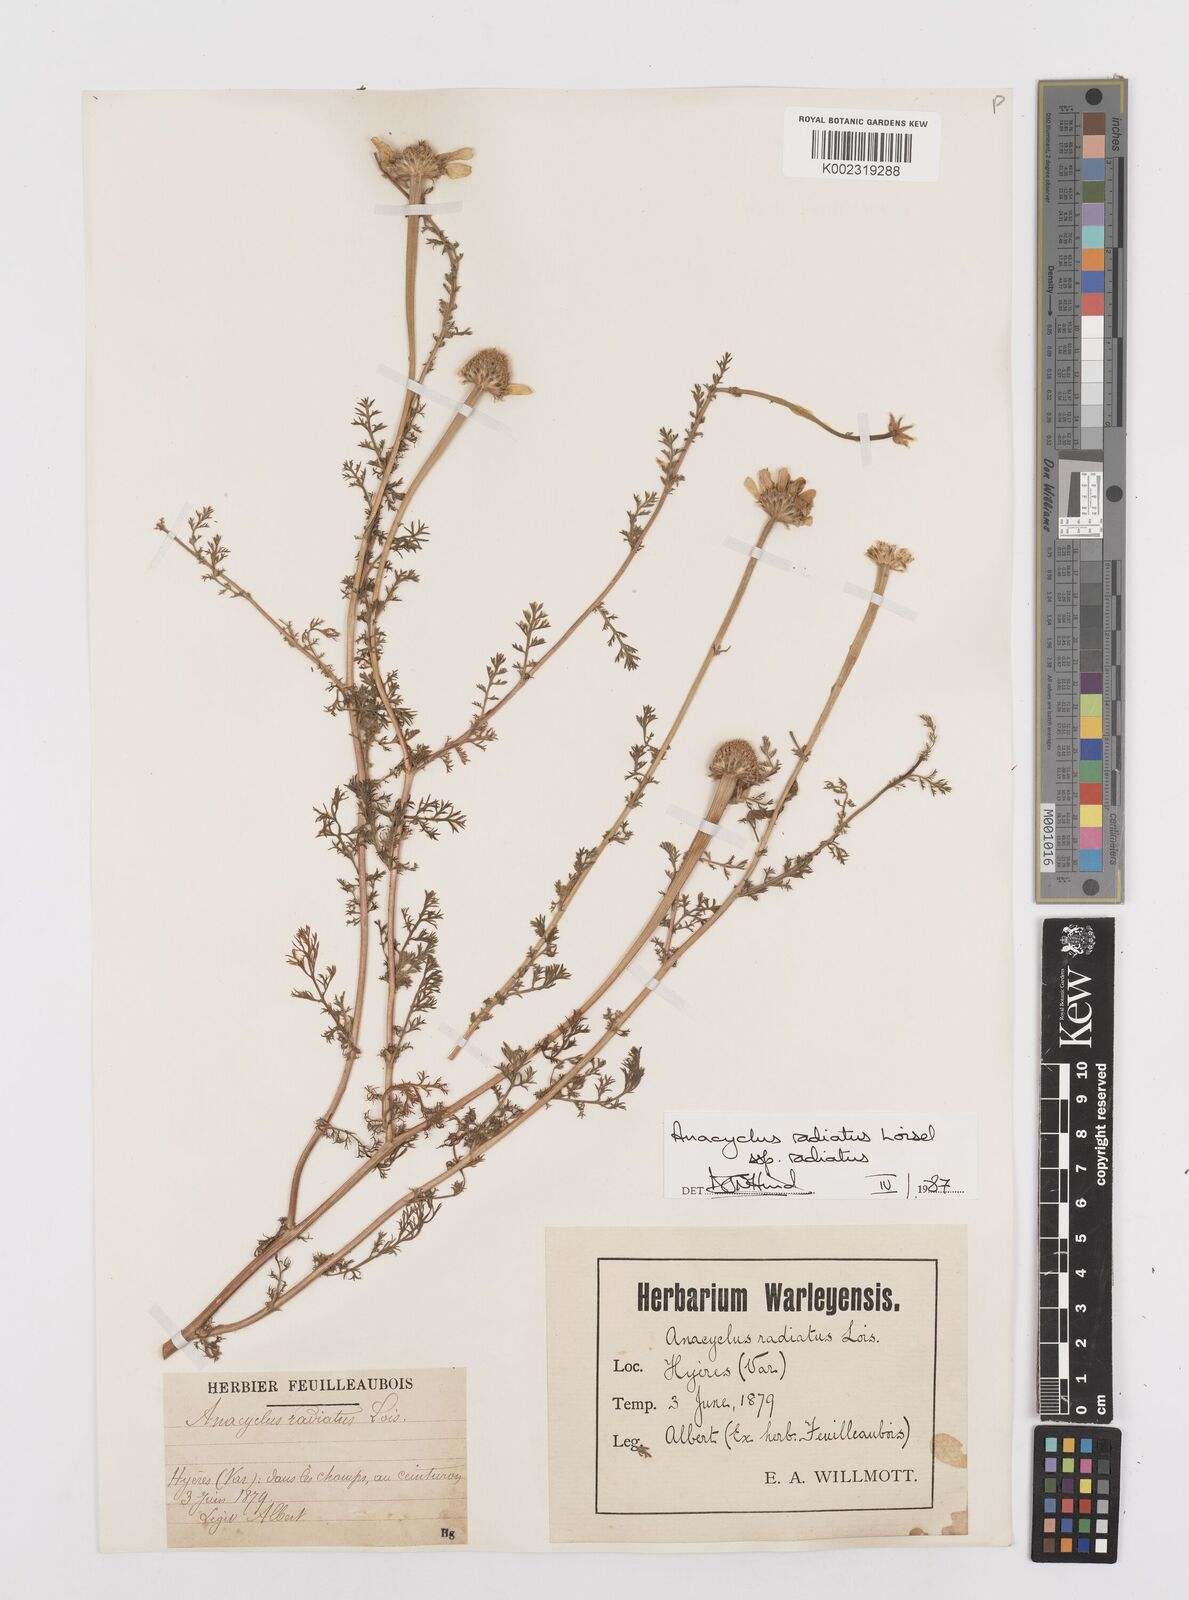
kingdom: Plantae
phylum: Tracheophyta
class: Magnoliopsida
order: Asterales
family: Asteraceae
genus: Anacyclus
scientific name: Anacyclus radiatus
